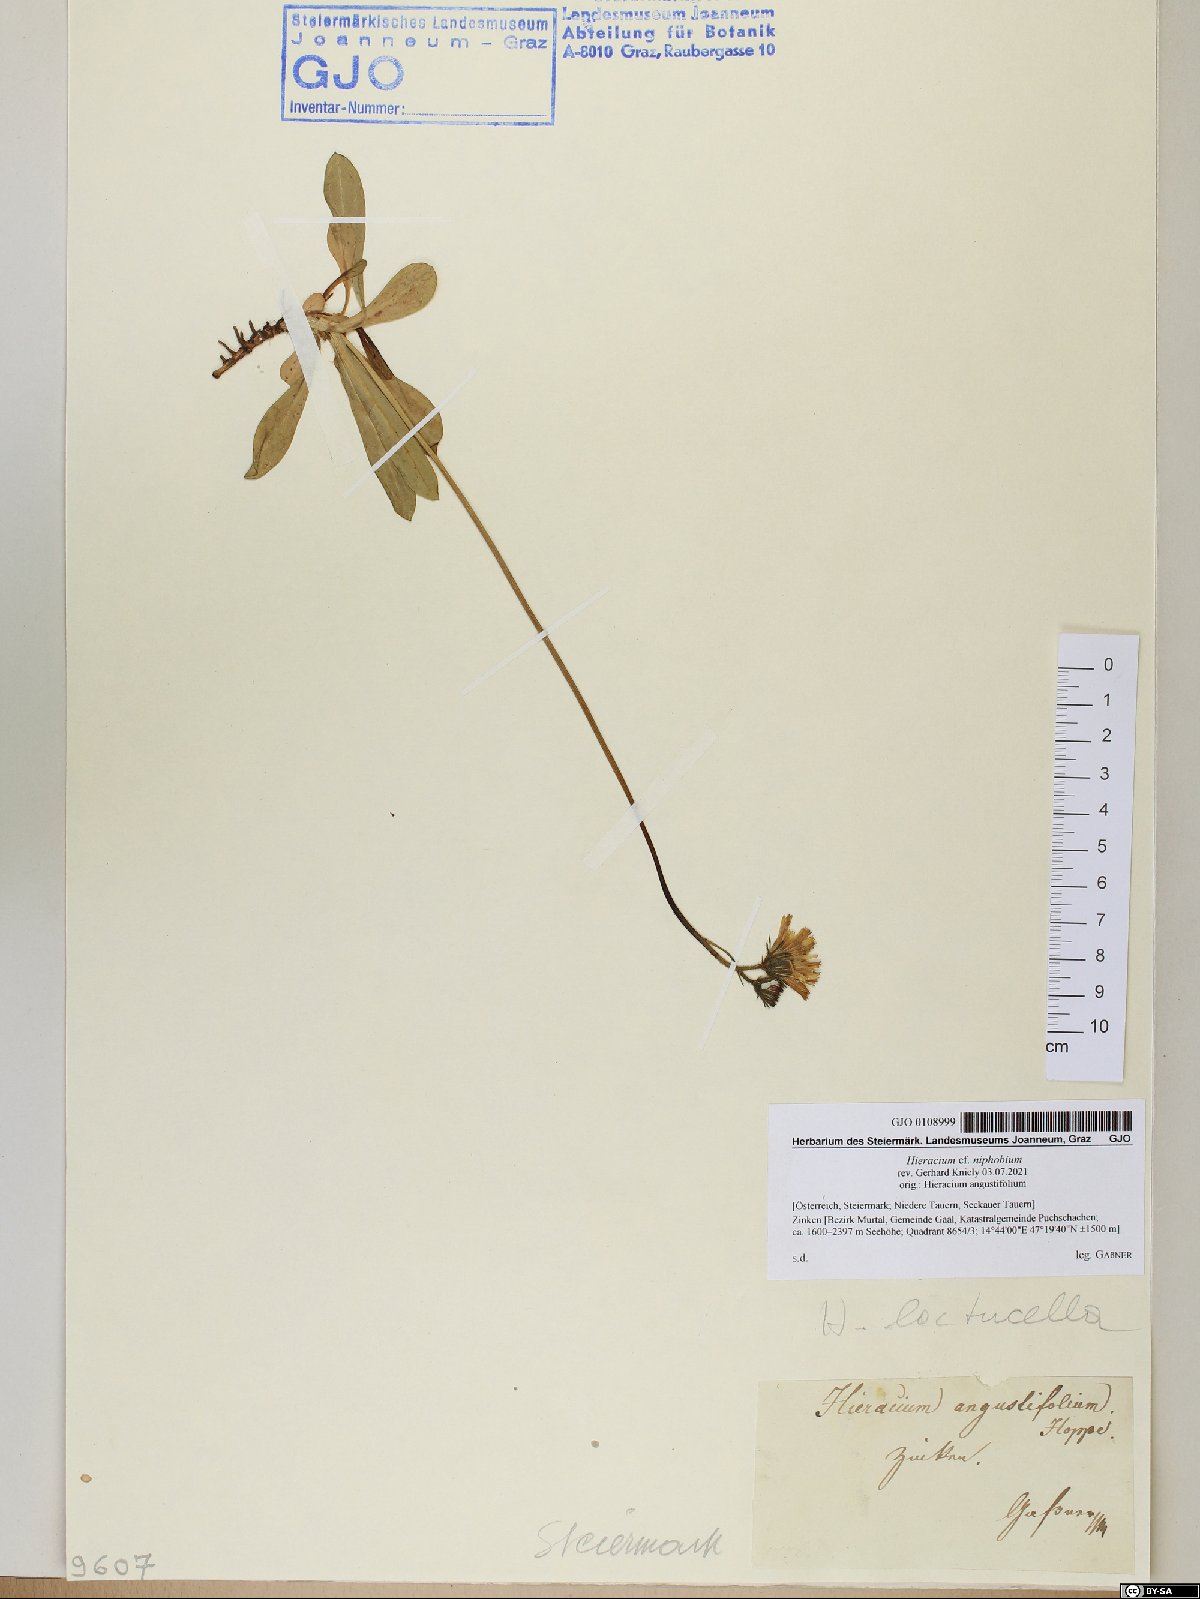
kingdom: Plantae
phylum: Tracheophyta
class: Magnoliopsida
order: Asterales
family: Asteraceae
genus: Pilosella
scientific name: Pilosella corymbuloides
